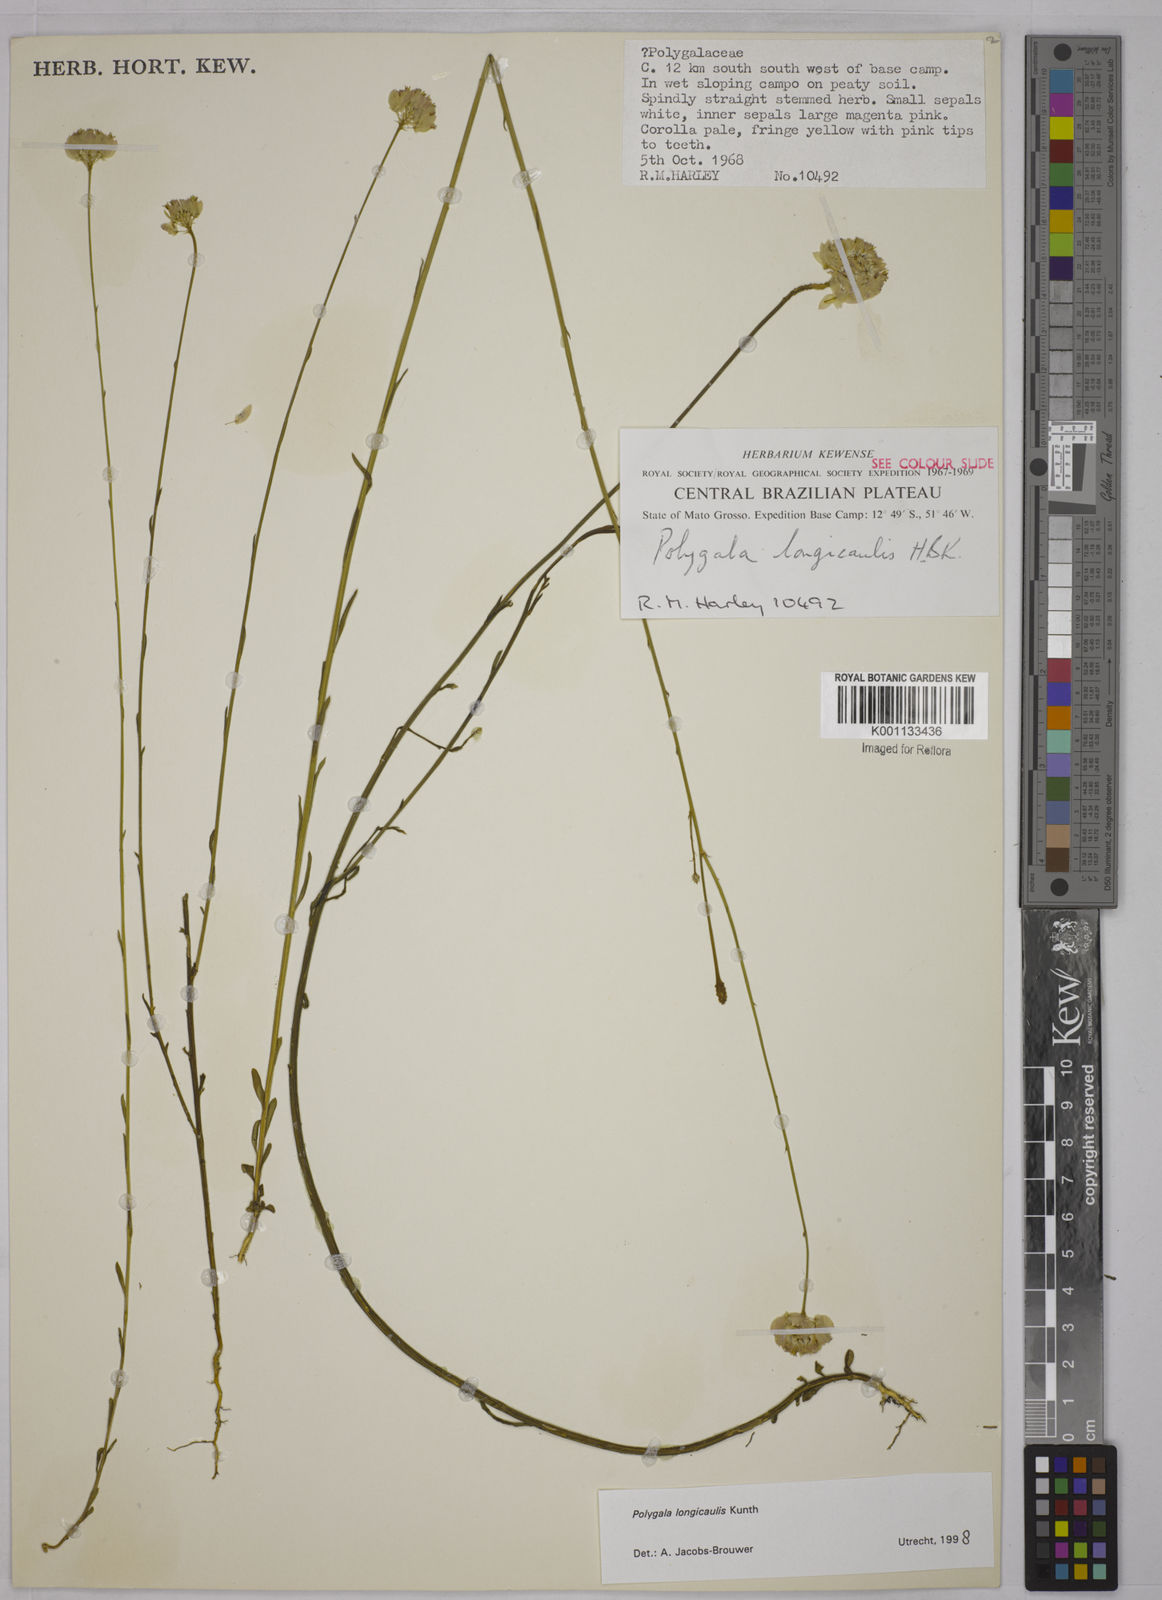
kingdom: Plantae
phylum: Tracheophyta
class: Magnoliopsida
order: Fabales
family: Polygalaceae
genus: Polygala
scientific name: Polygala longicaulis
